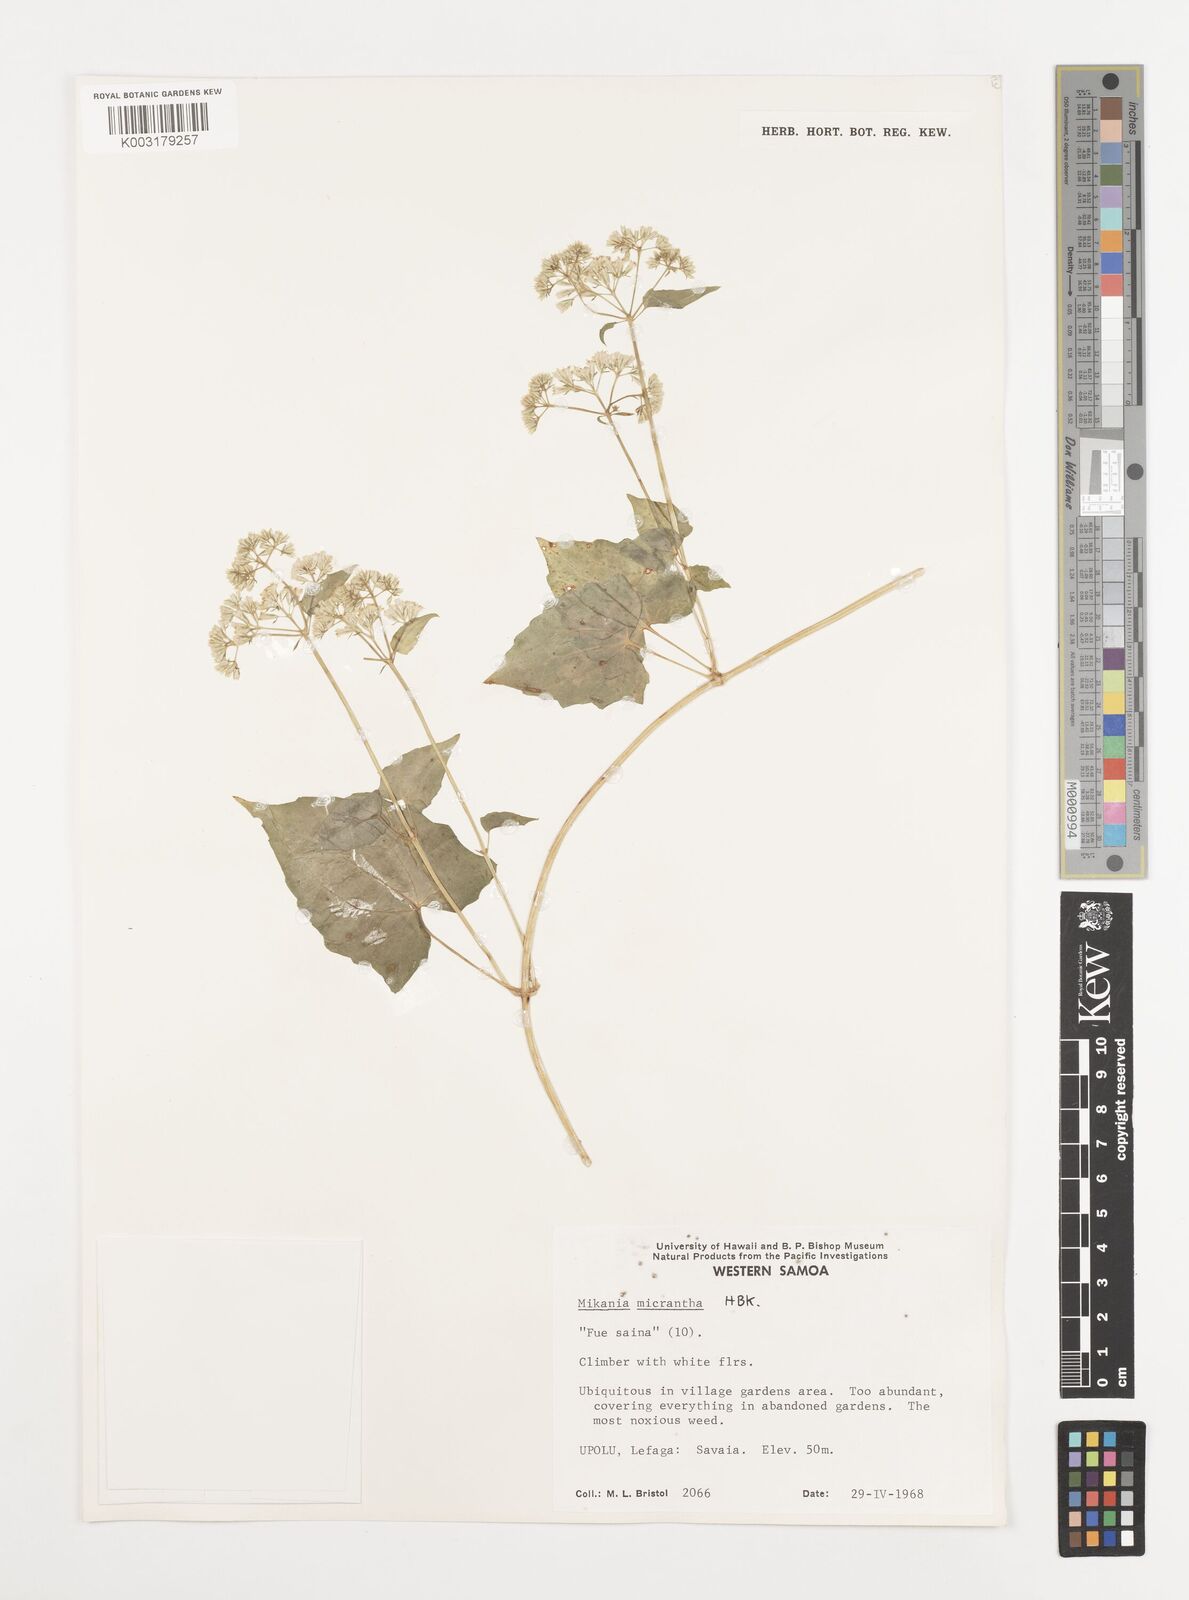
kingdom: Plantae
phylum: Tracheophyta
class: Magnoliopsida
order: Asterales
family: Asteraceae
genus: Mikania
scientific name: Mikania micrantha
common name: Mile-a-minute
